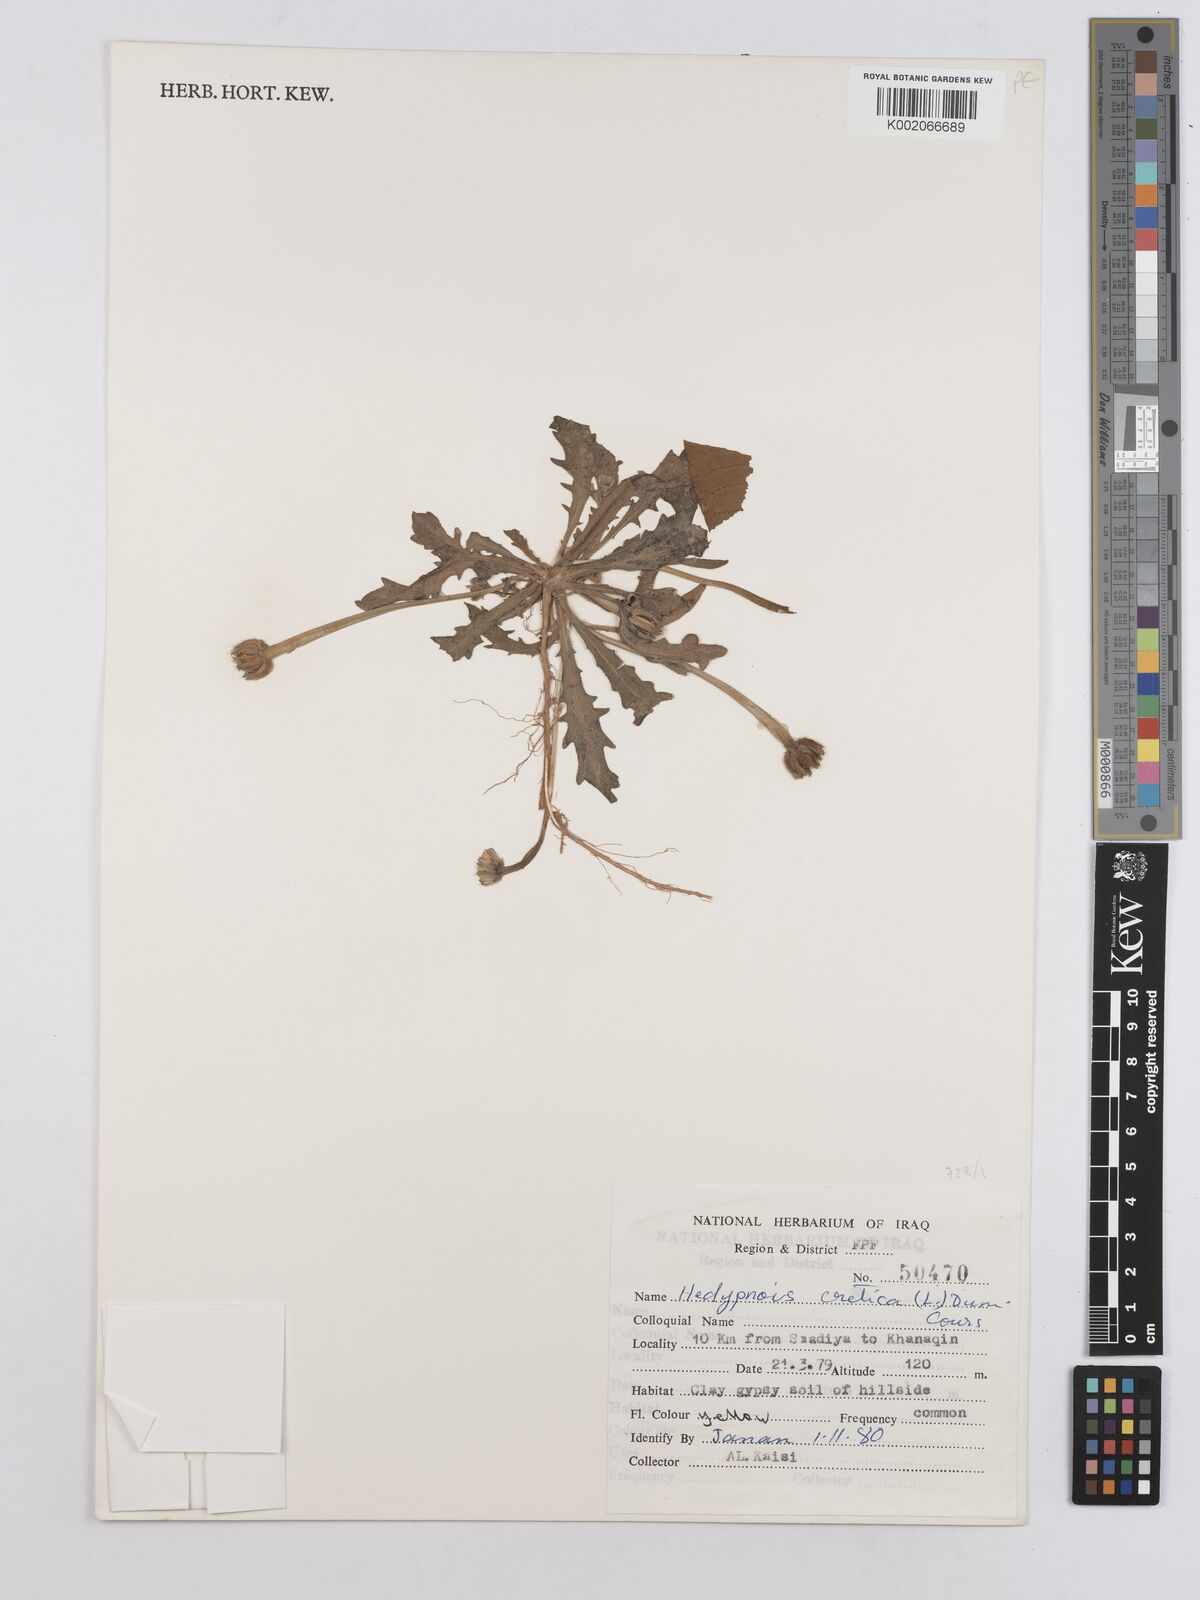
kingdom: Plantae
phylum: Tracheophyta
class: Magnoliopsida
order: Asterales
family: Asteraceae
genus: Hedypnois
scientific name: Hedypnois cretica
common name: Scaly hawkbit
